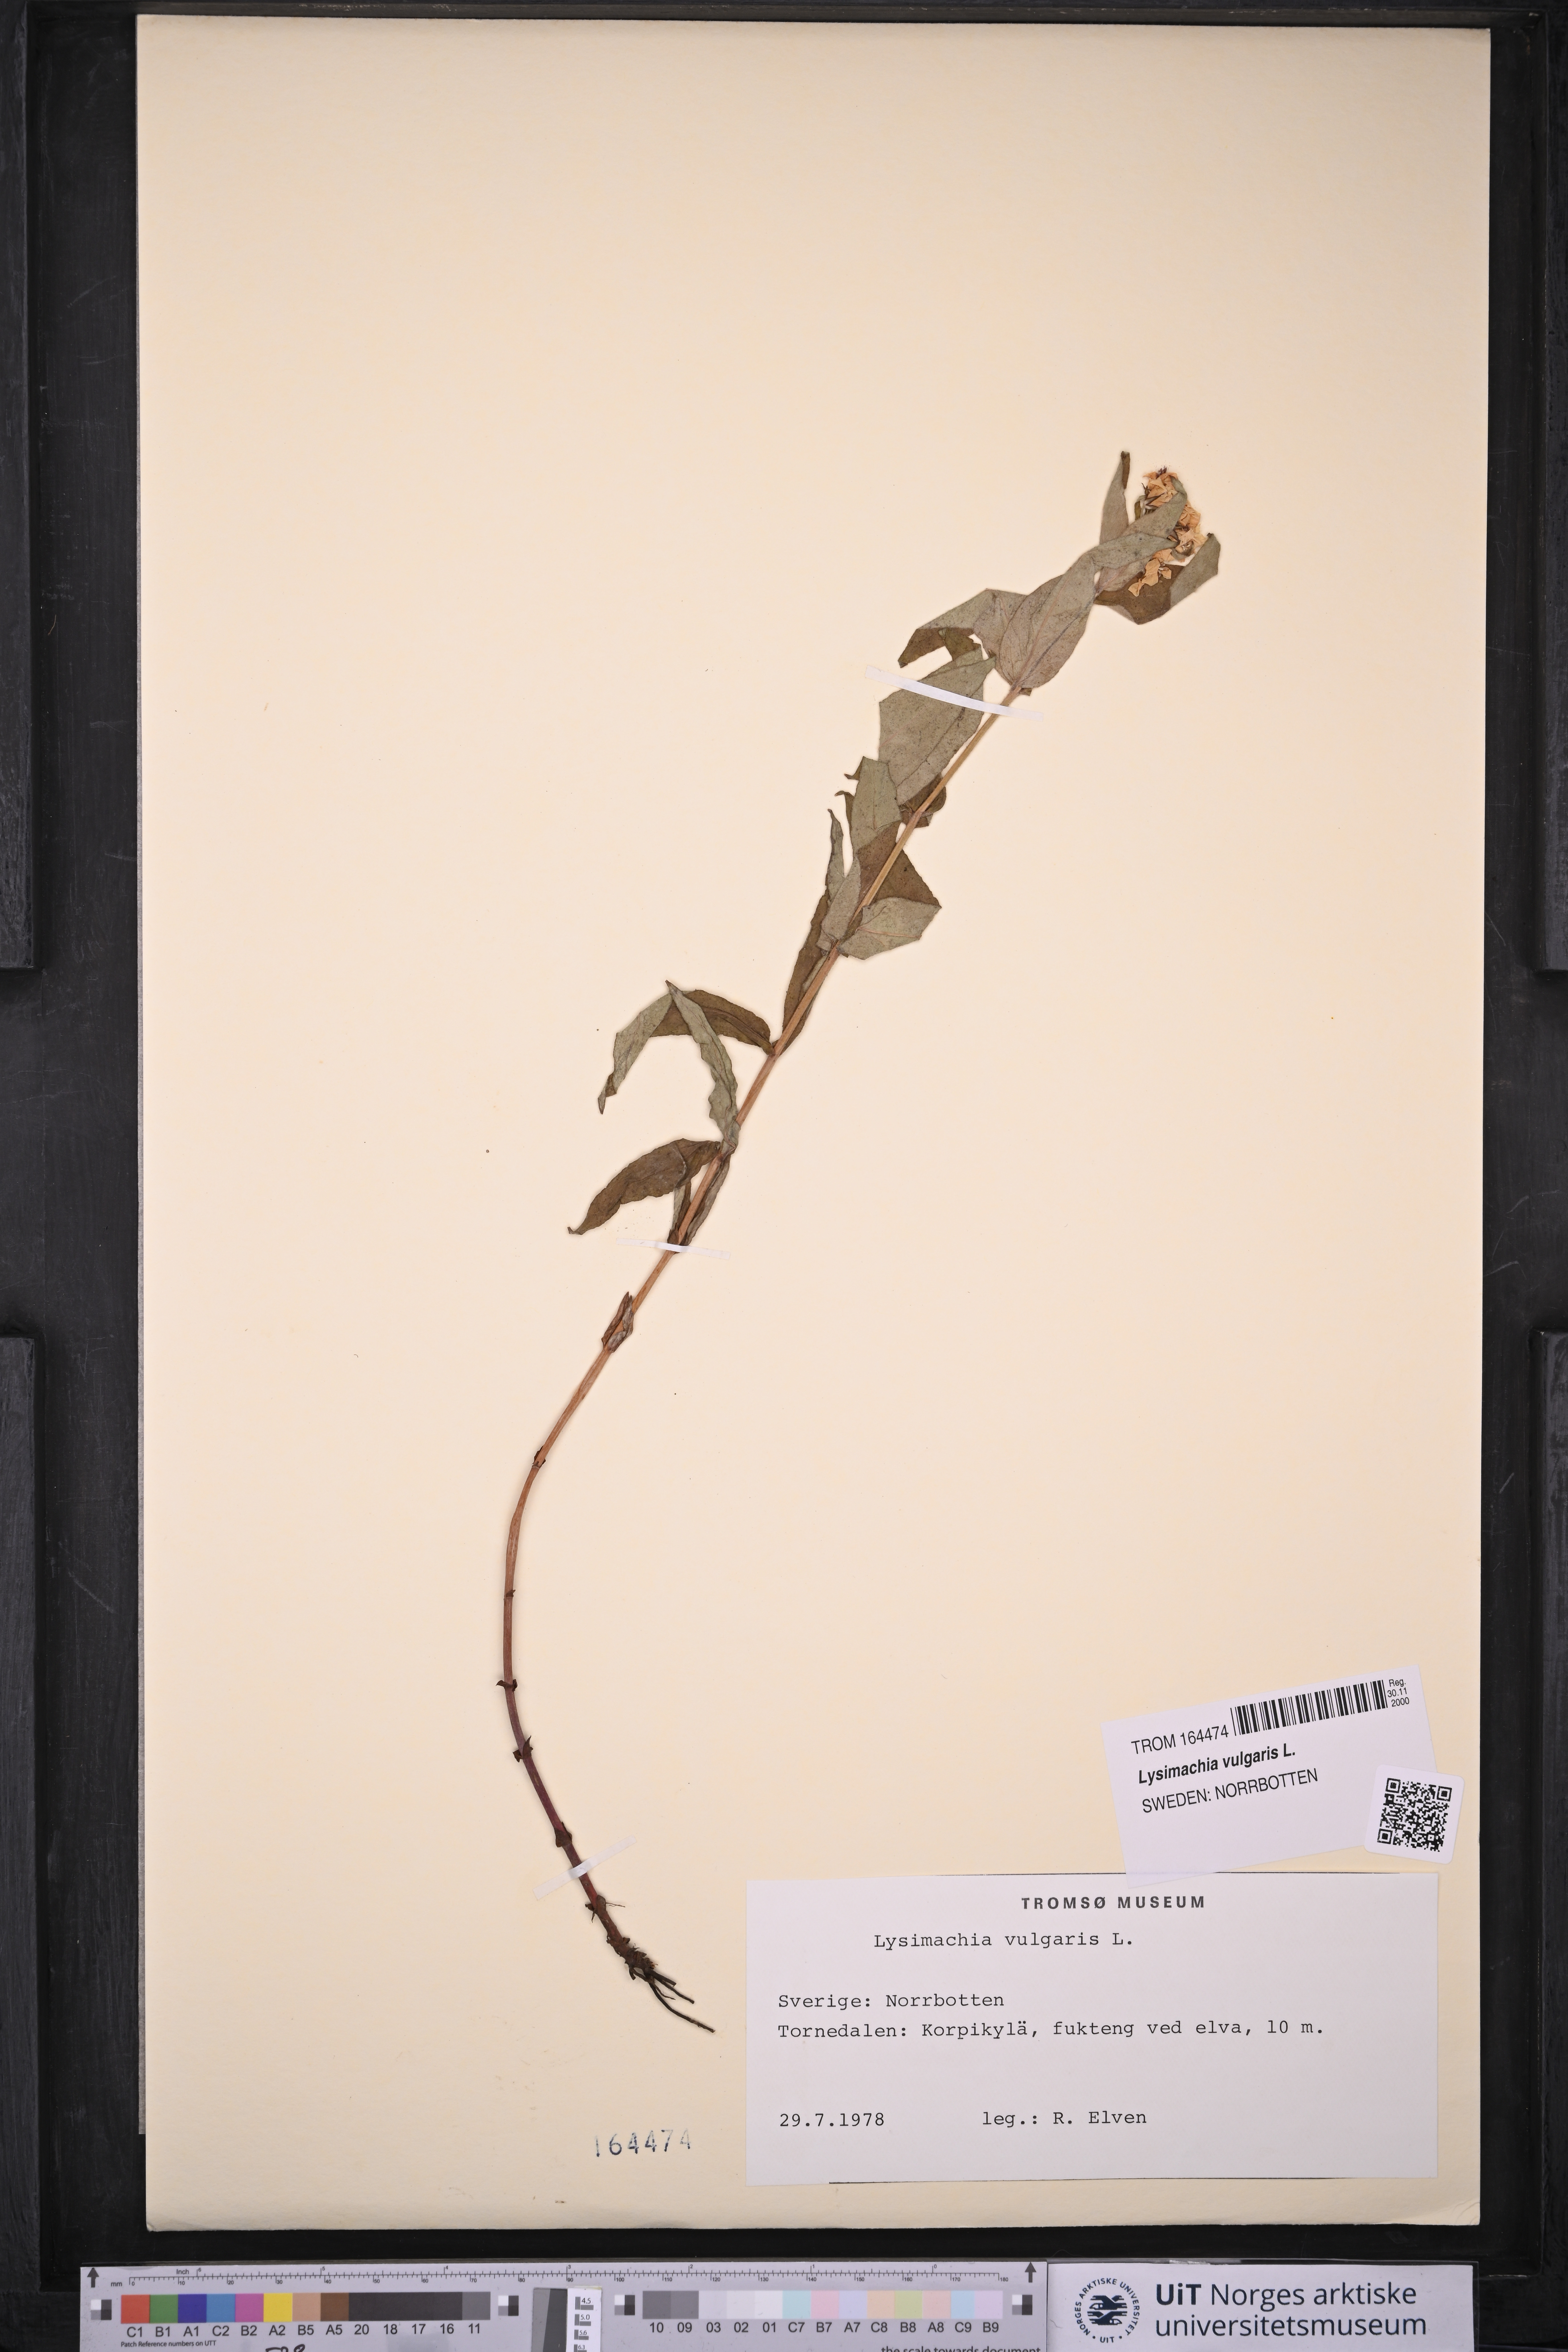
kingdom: Plantae
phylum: Tracheophyta
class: Magnoliopsida
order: Ericales
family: Primulaceae
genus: Lysimachia
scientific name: Lysimachia vulgaris
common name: Yellow loosestrife
